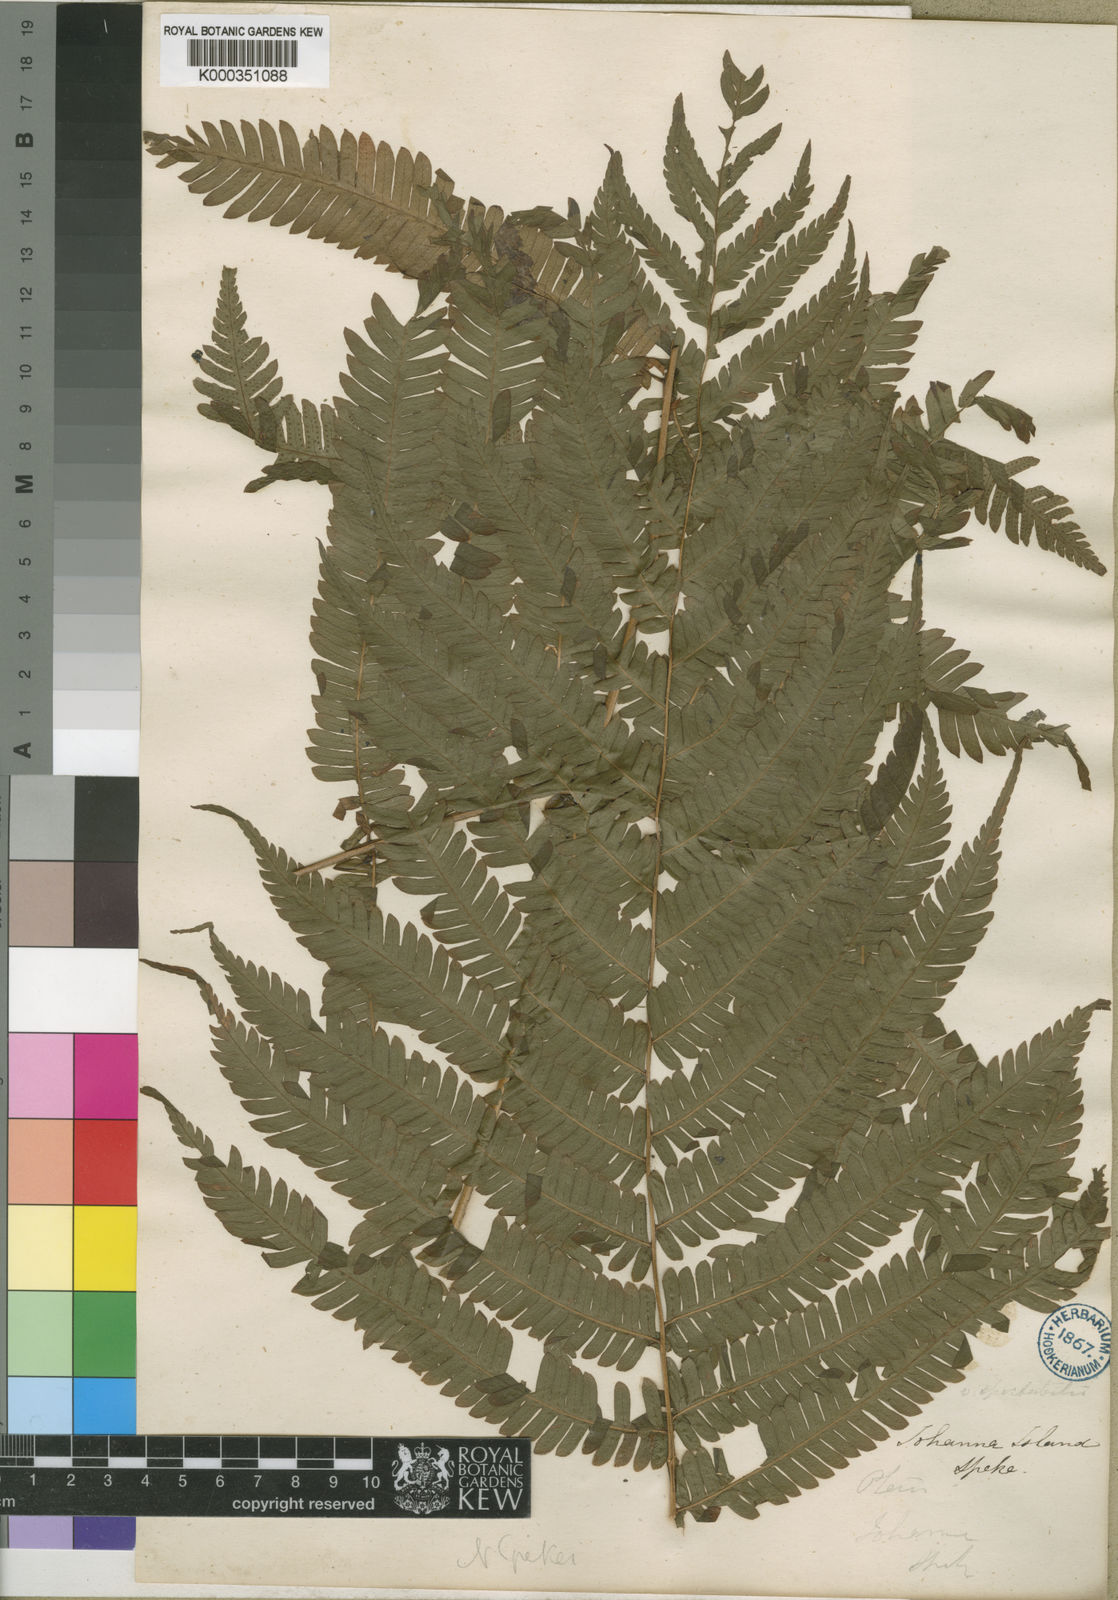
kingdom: Plantae
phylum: Tracheophyta
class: Polypodiopsida
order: Polypodiales
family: Dryopteridaceae
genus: Ctenitis
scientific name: Ctenitis spekei
